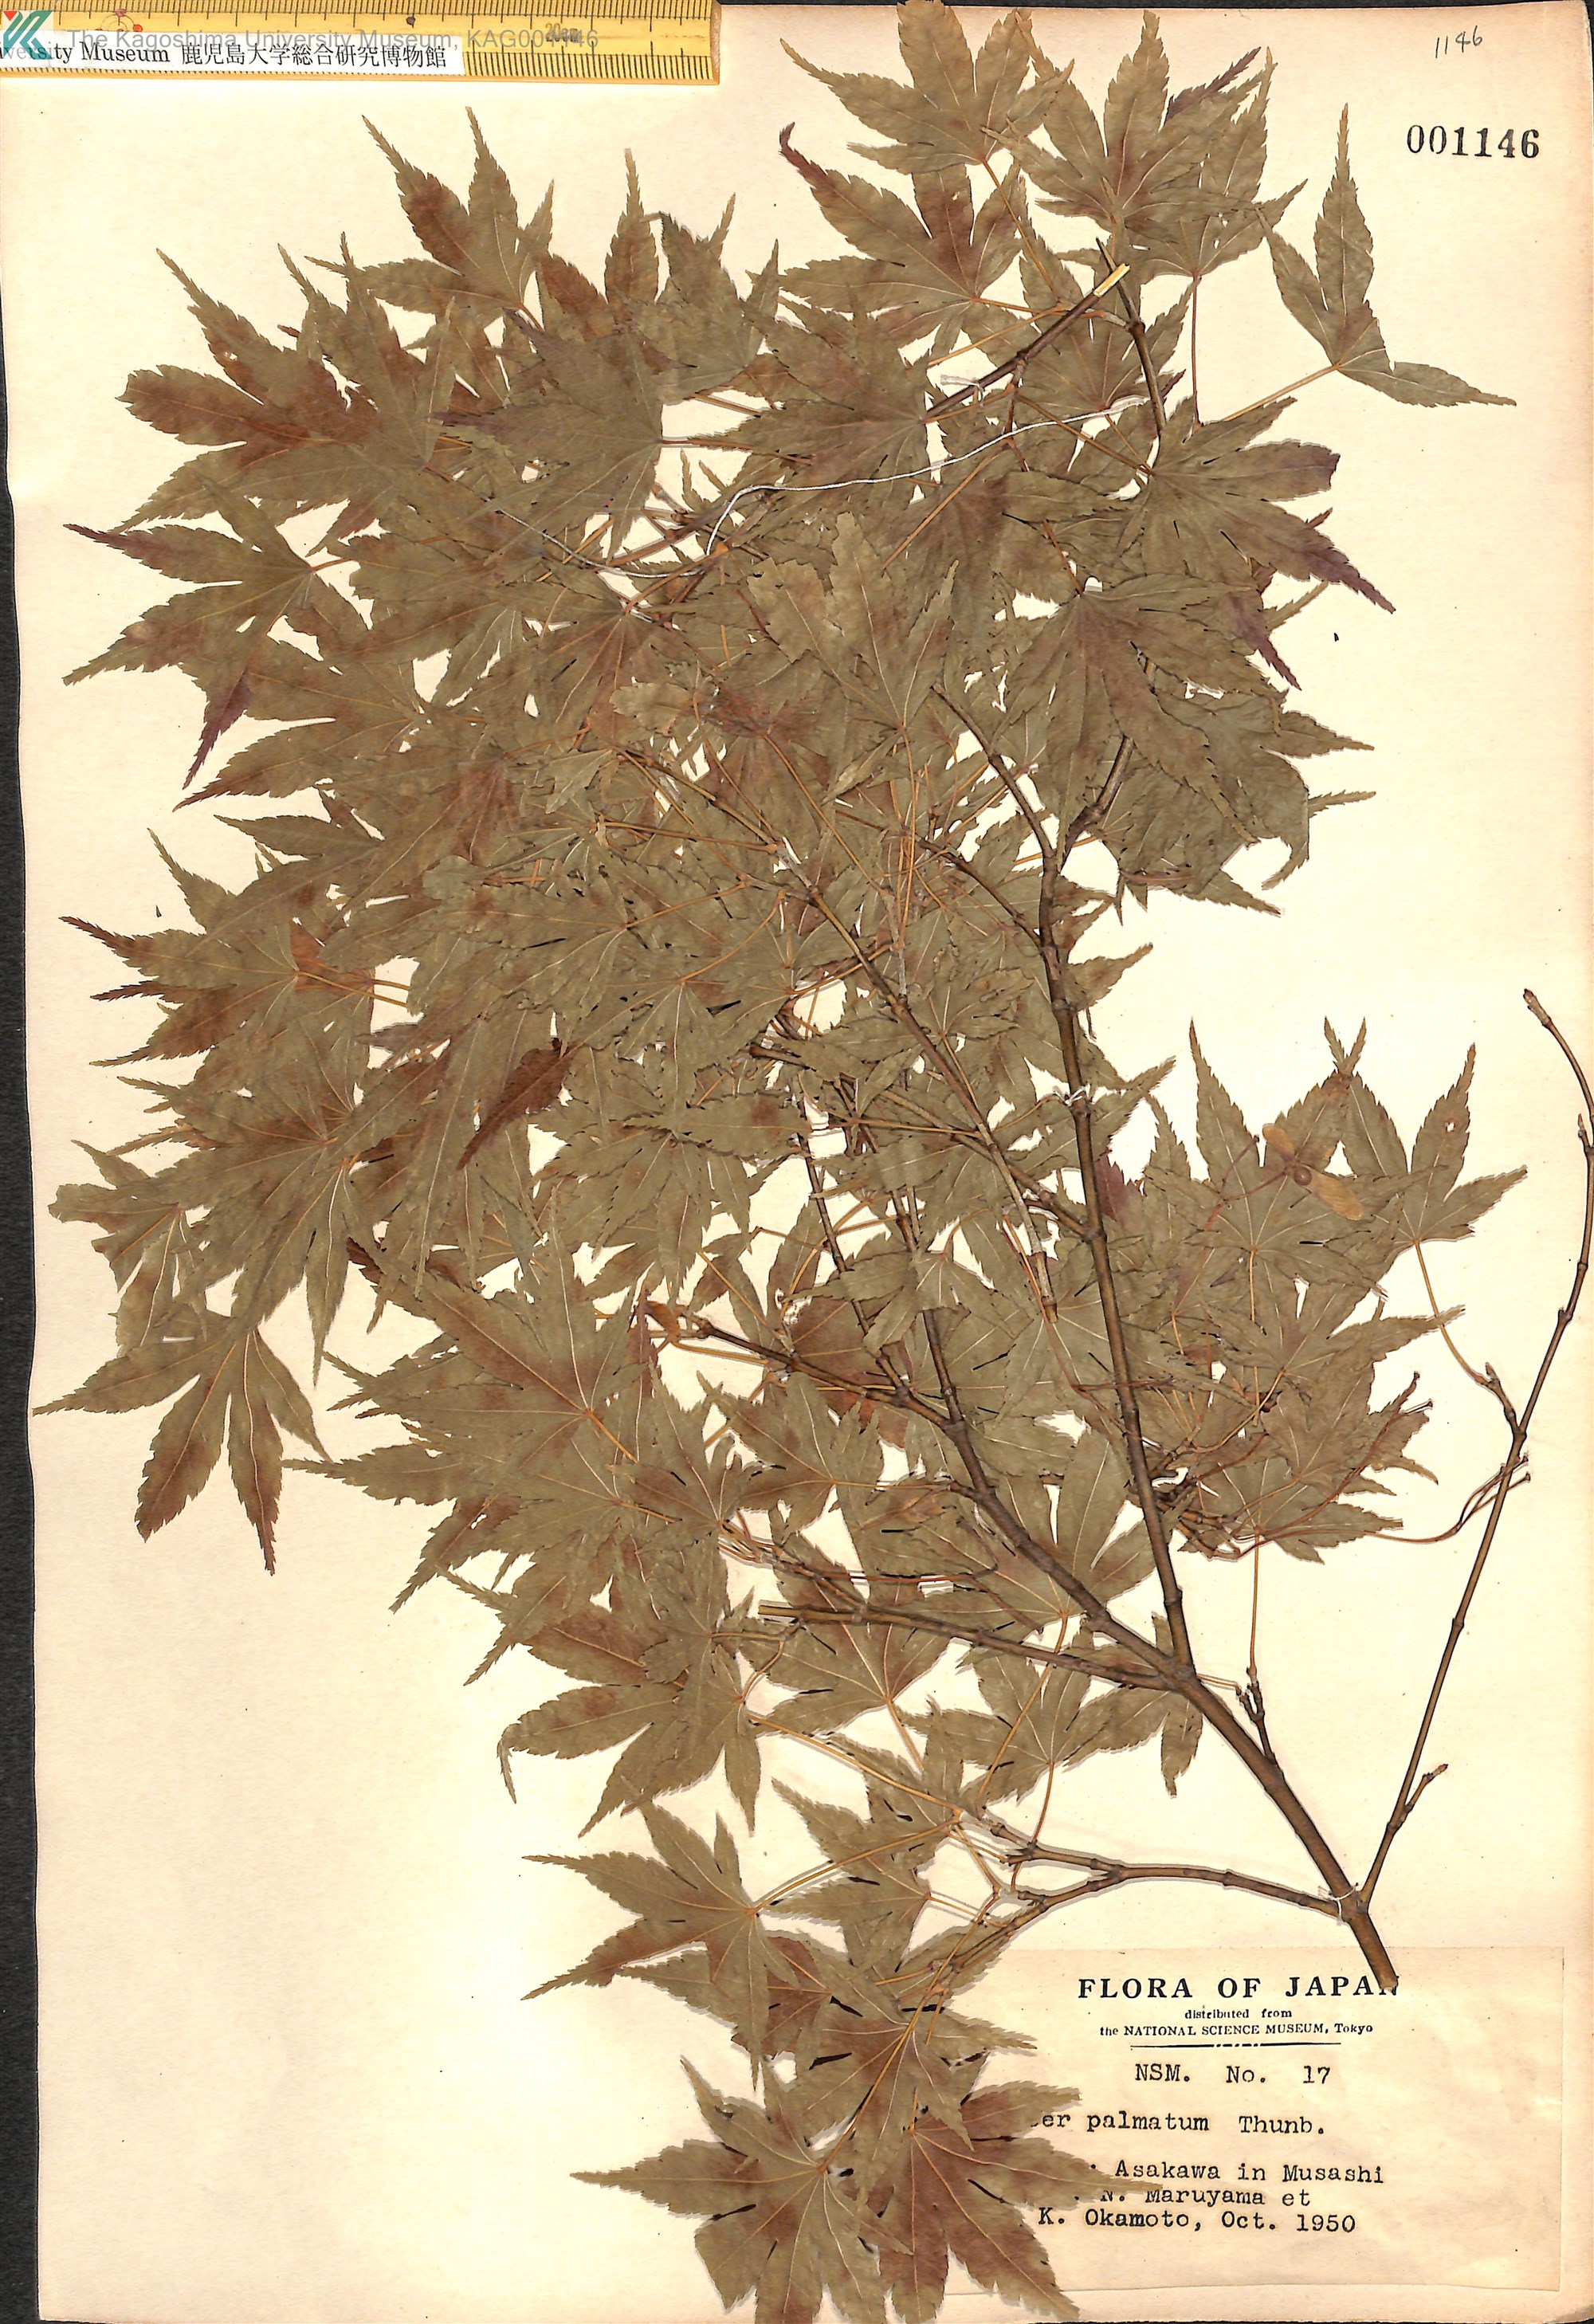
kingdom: Plantae
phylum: Tracheophyta
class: Magnoliopsida
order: Sapindales
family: Sapindaceae
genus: Acer
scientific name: Acer palmatum
